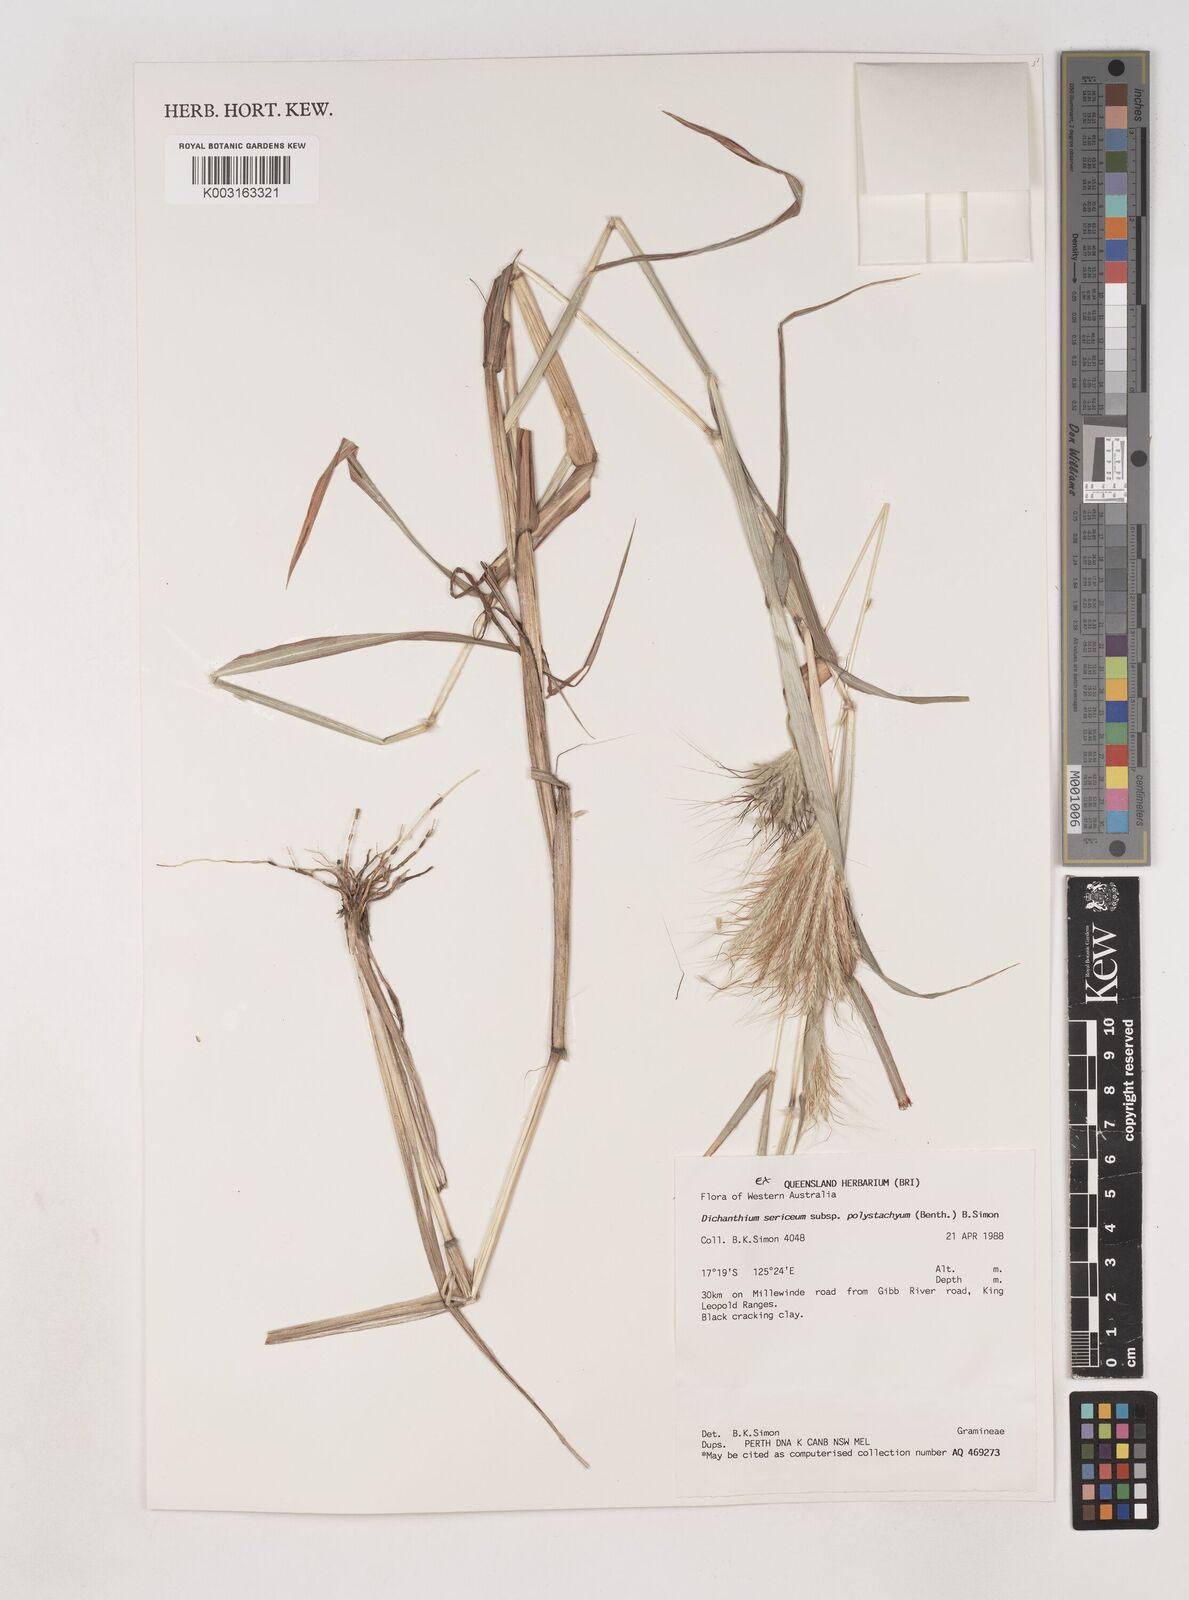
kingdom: Plantae
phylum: Tracheophyta
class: Liliopsida
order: Poales
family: Poaceae
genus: Dichanthium
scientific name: Dichanthium sericeum
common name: Silky bluestem
